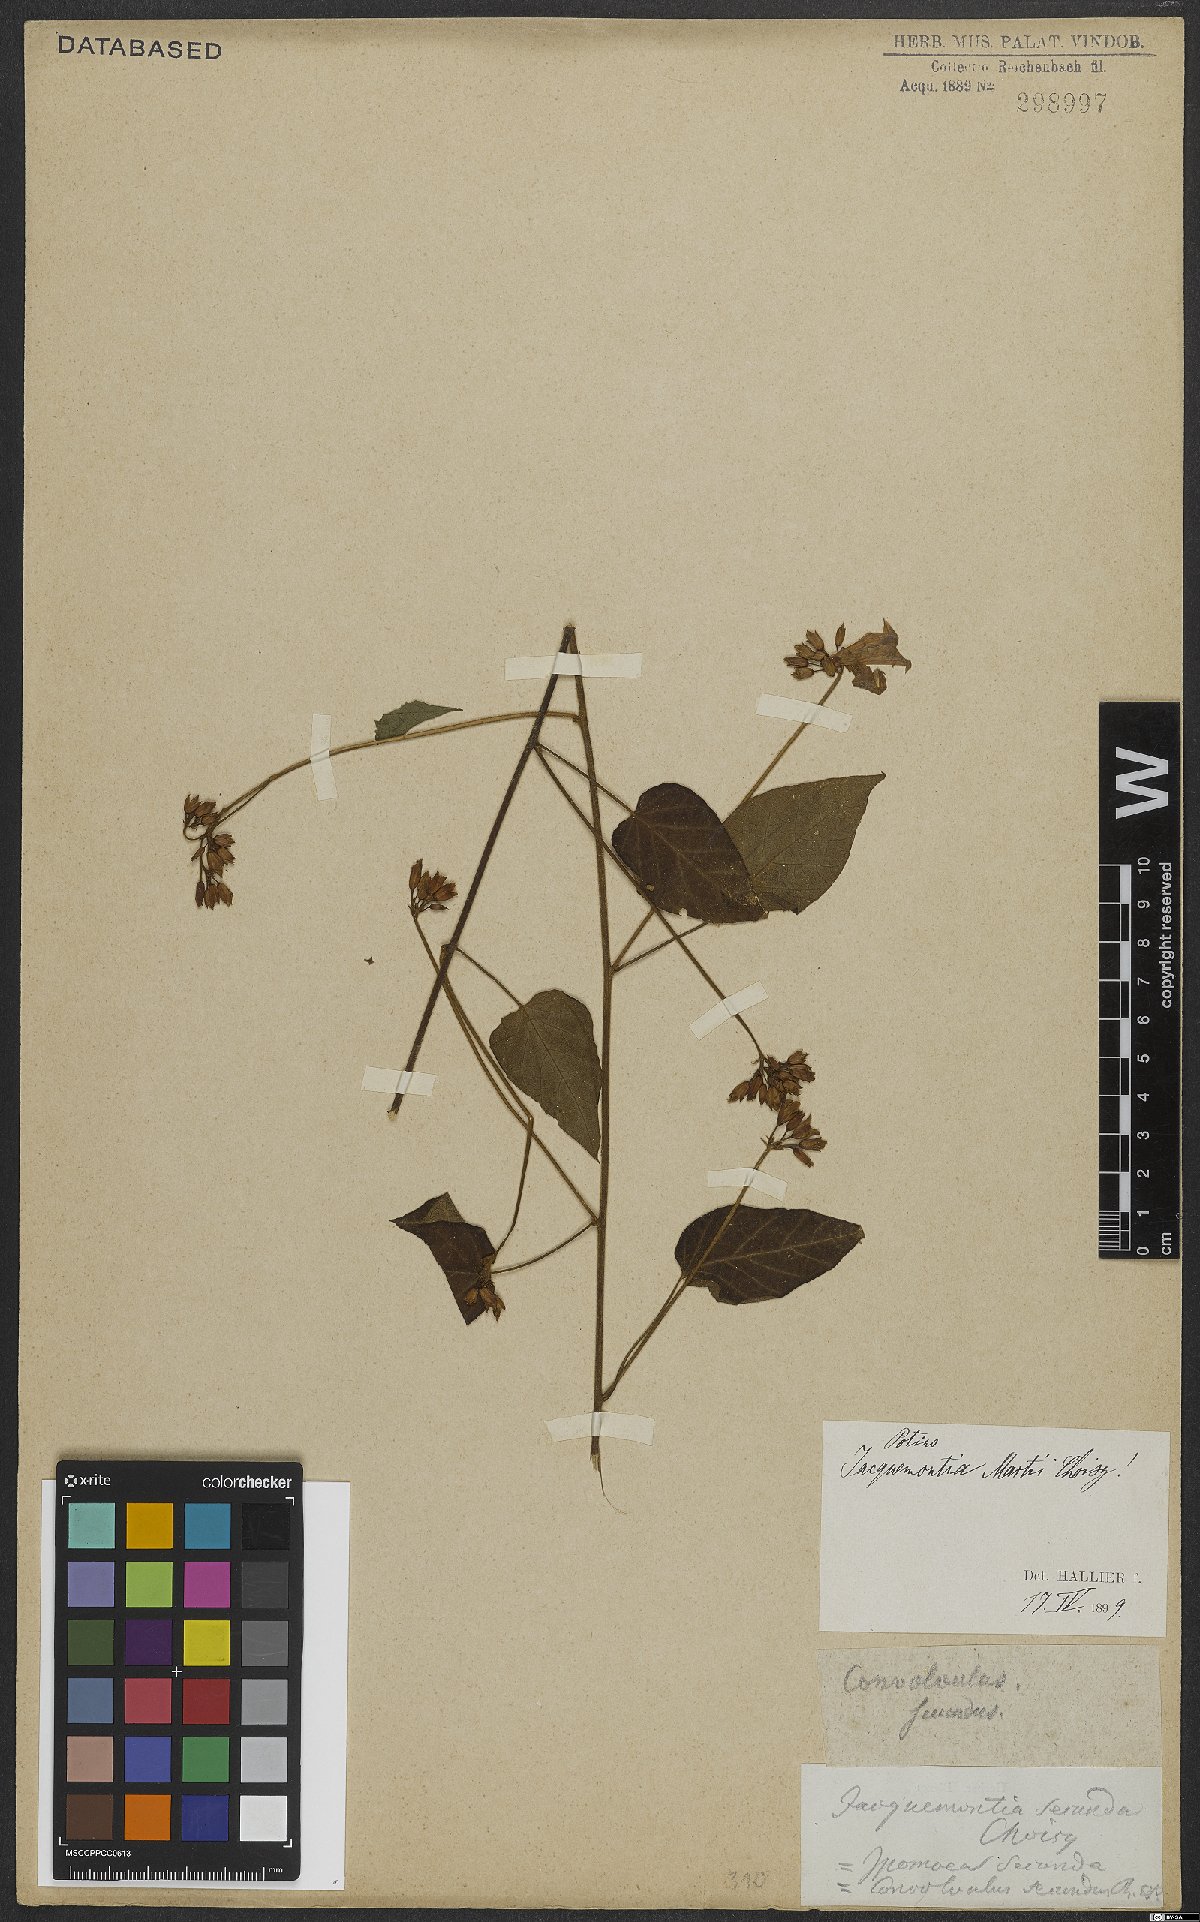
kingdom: Plantae
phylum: Tracheophyta
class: Magnoliopsida
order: Solanales
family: Convolvulaceae
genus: Jacquemontia
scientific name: Jacquemontia martii
